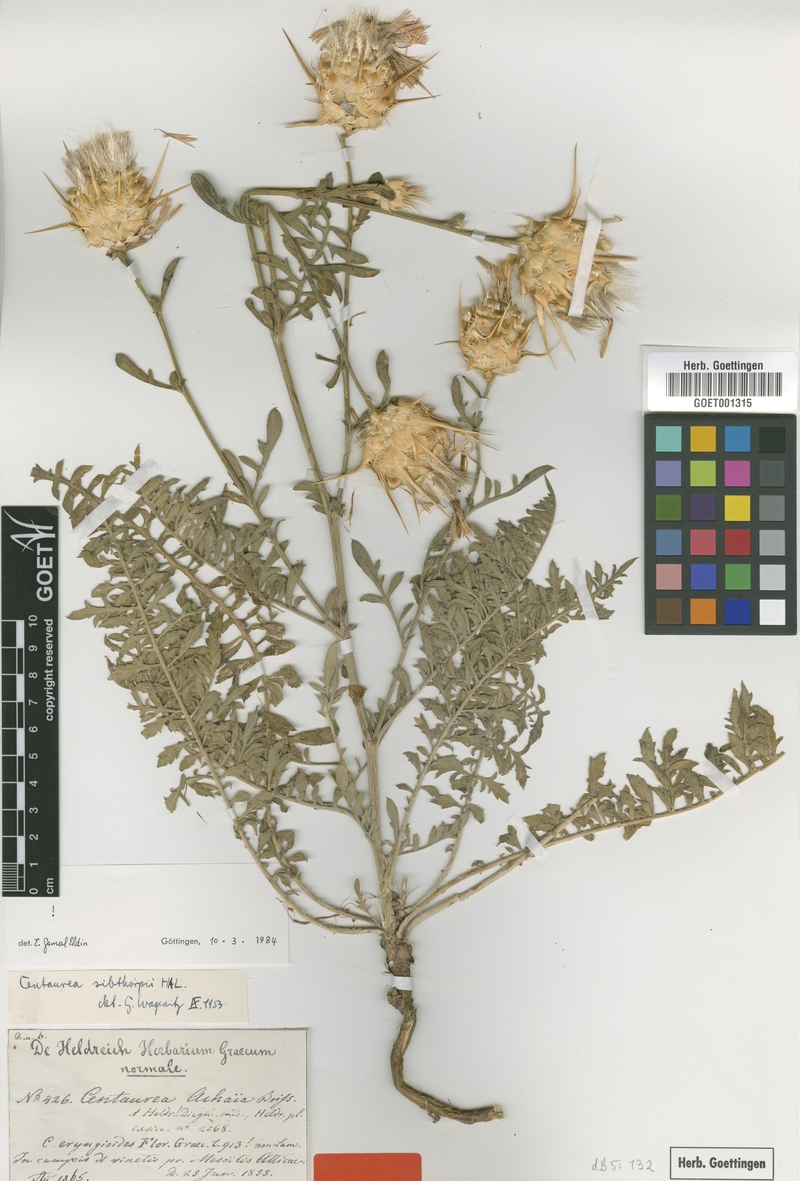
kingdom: Plantae
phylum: Tracheophyta
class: Magnoliopsida
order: Asterales
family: Asteraceae
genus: Centaurea
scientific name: Centaurea achaia
